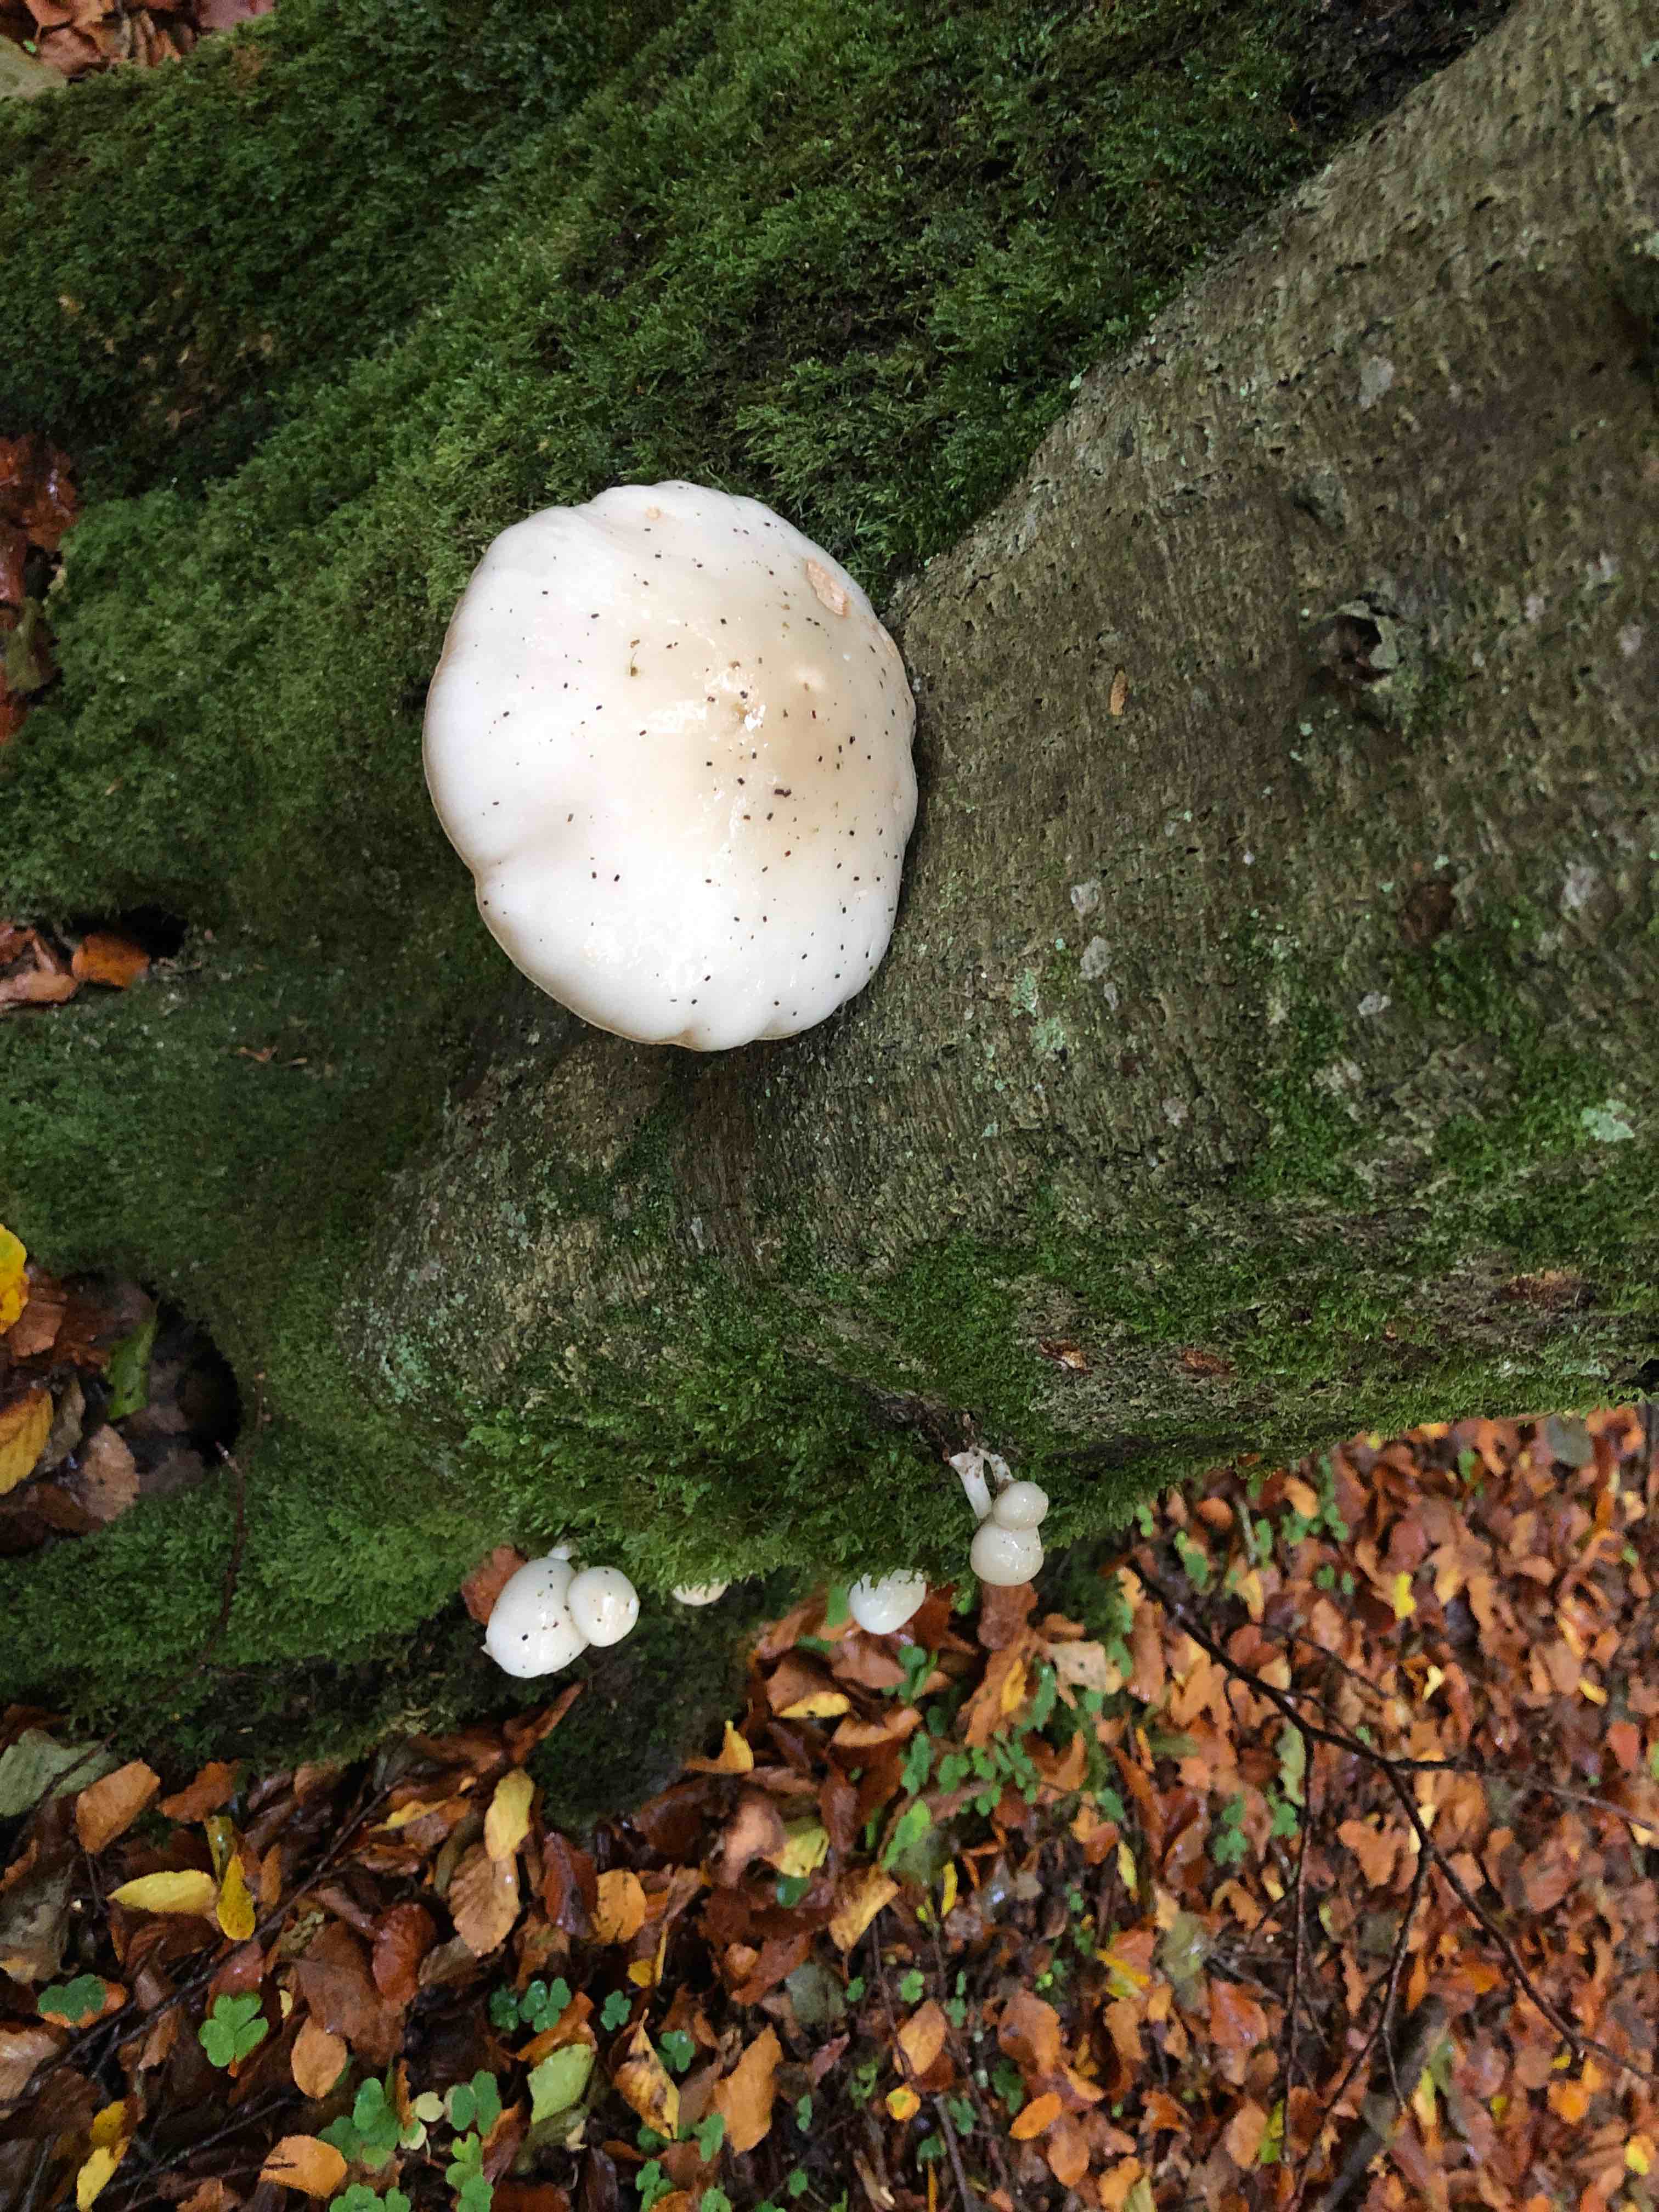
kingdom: Fungi
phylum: Basidiomycota
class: Agaricomycetes
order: Agaricales
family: Physalacriaceae
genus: Mucidula
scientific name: Mucidula mucida
